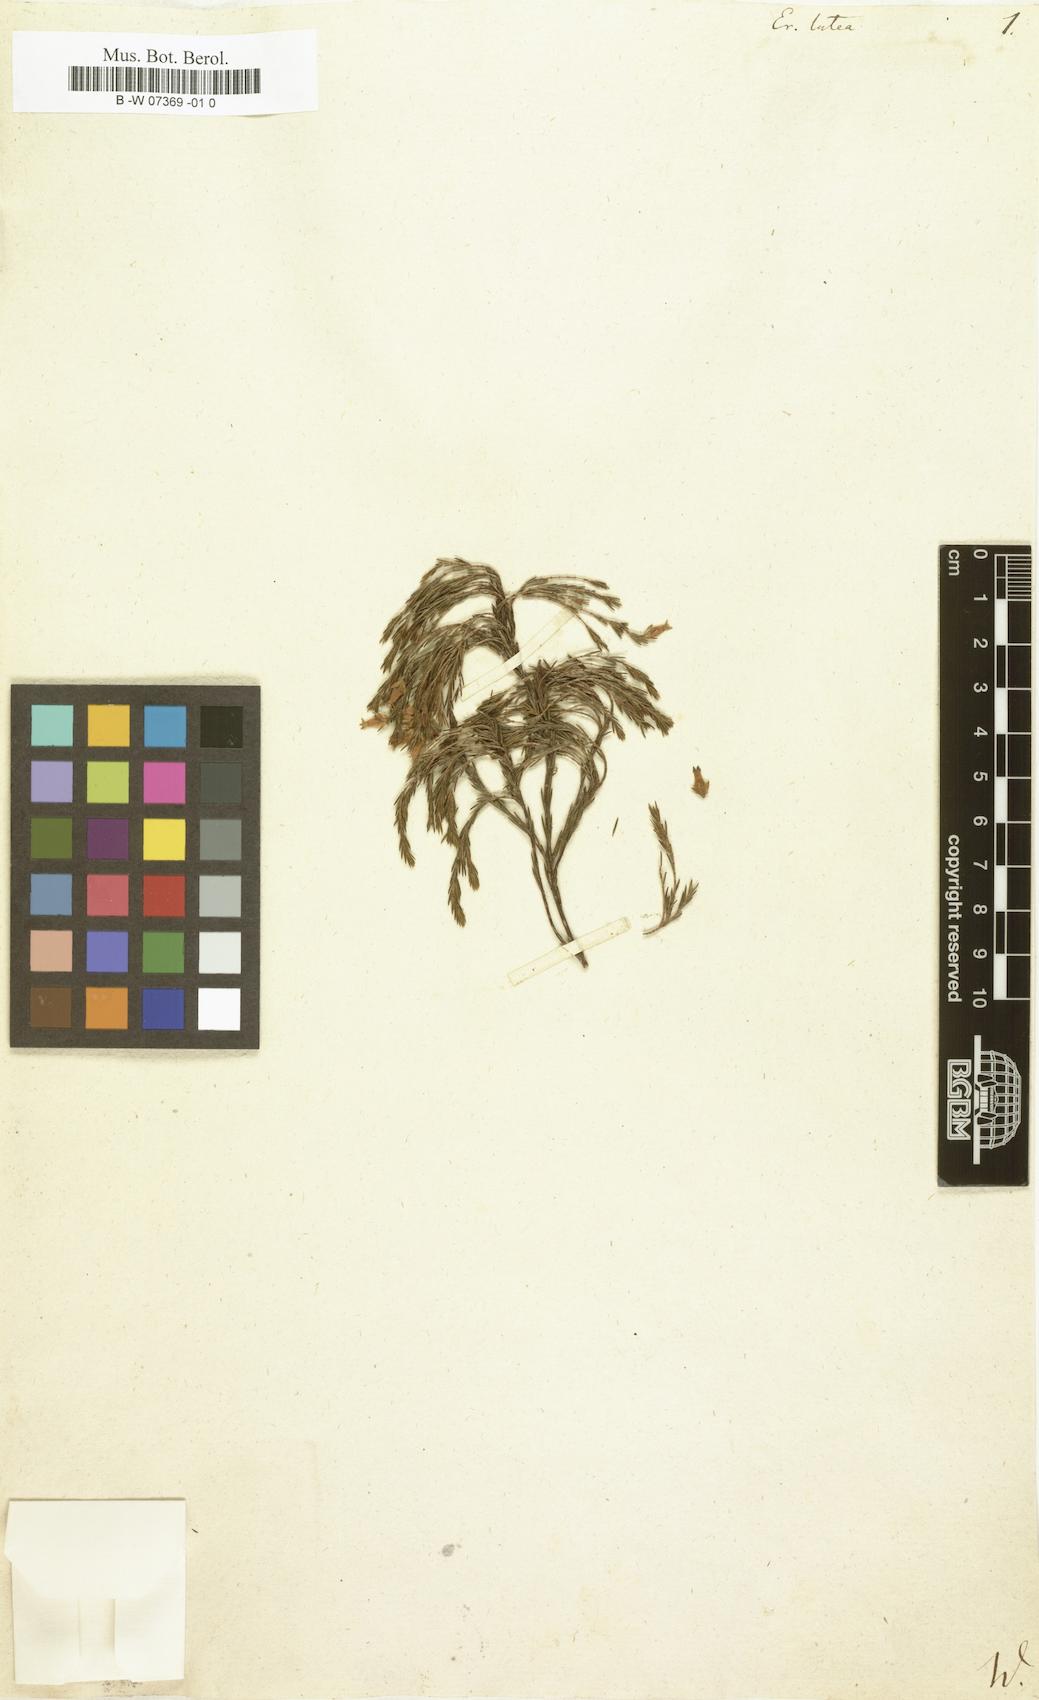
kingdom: Plantae
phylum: Tracheophyta
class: Magnoliopsida
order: Ericales
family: Ericaceae
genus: Erica
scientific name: Erica lutea
